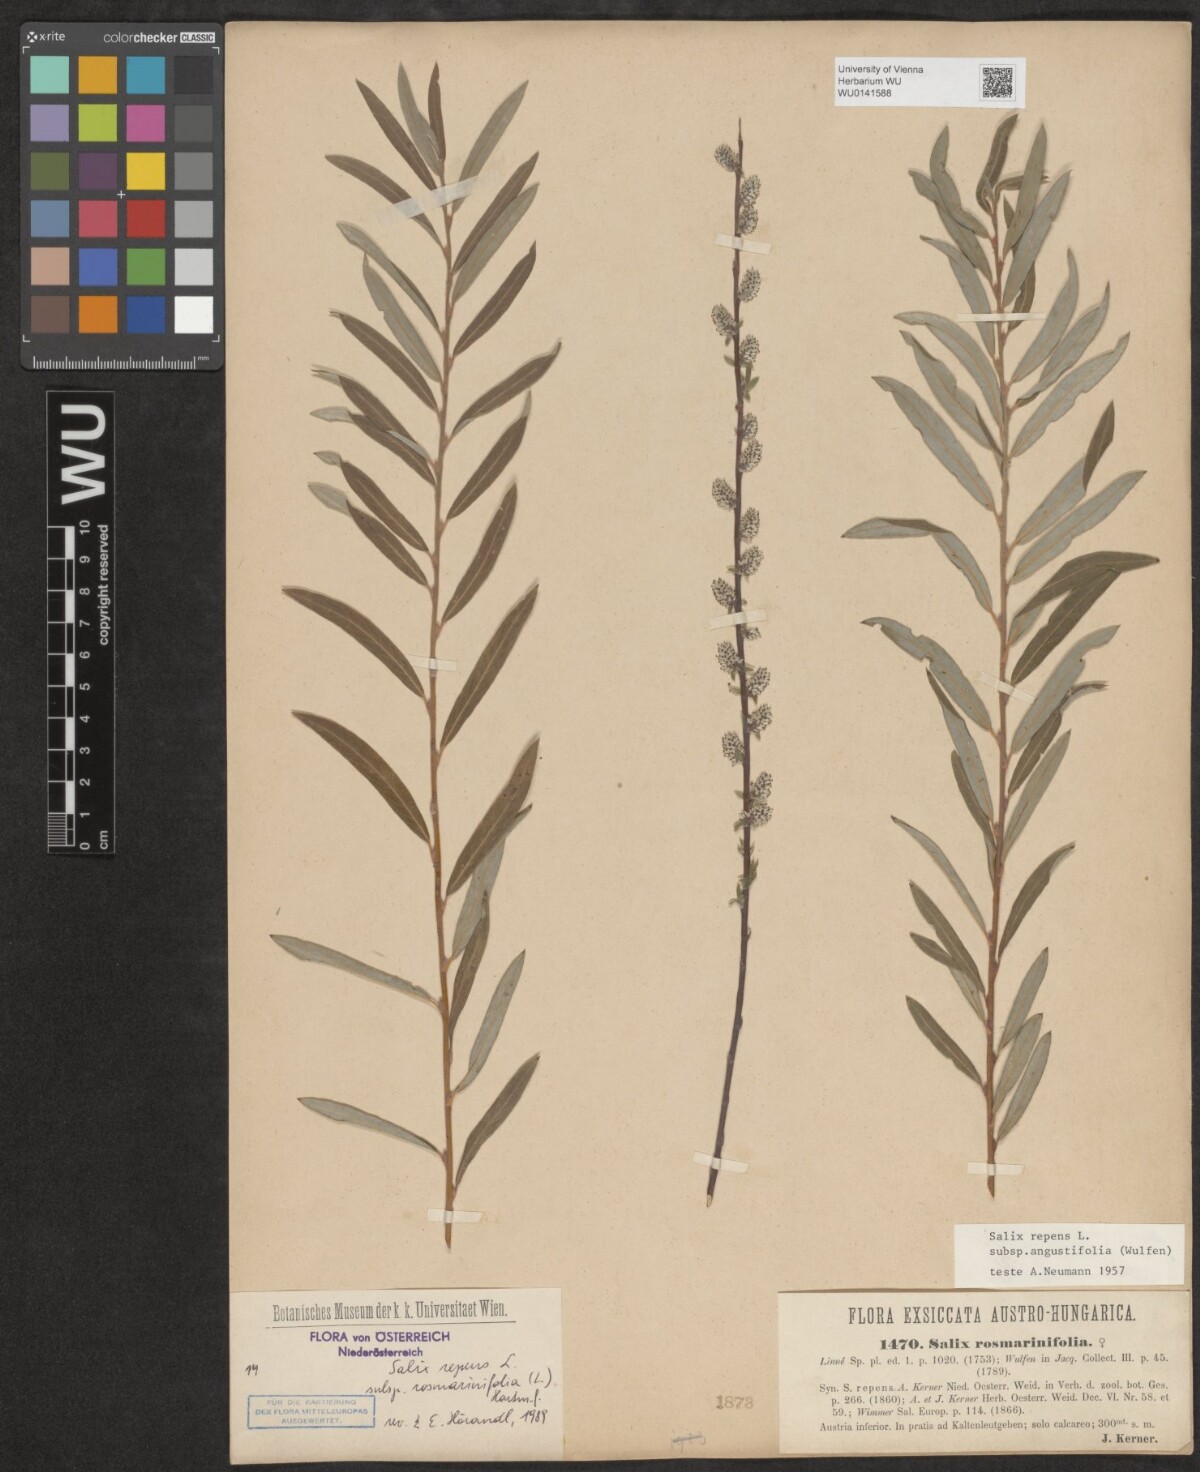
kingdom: Plantae
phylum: Tracheophyta
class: Magnoliopsida
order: Malpighiales
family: Salicaceae
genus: Salix
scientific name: Salix repens
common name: Creeping willow
